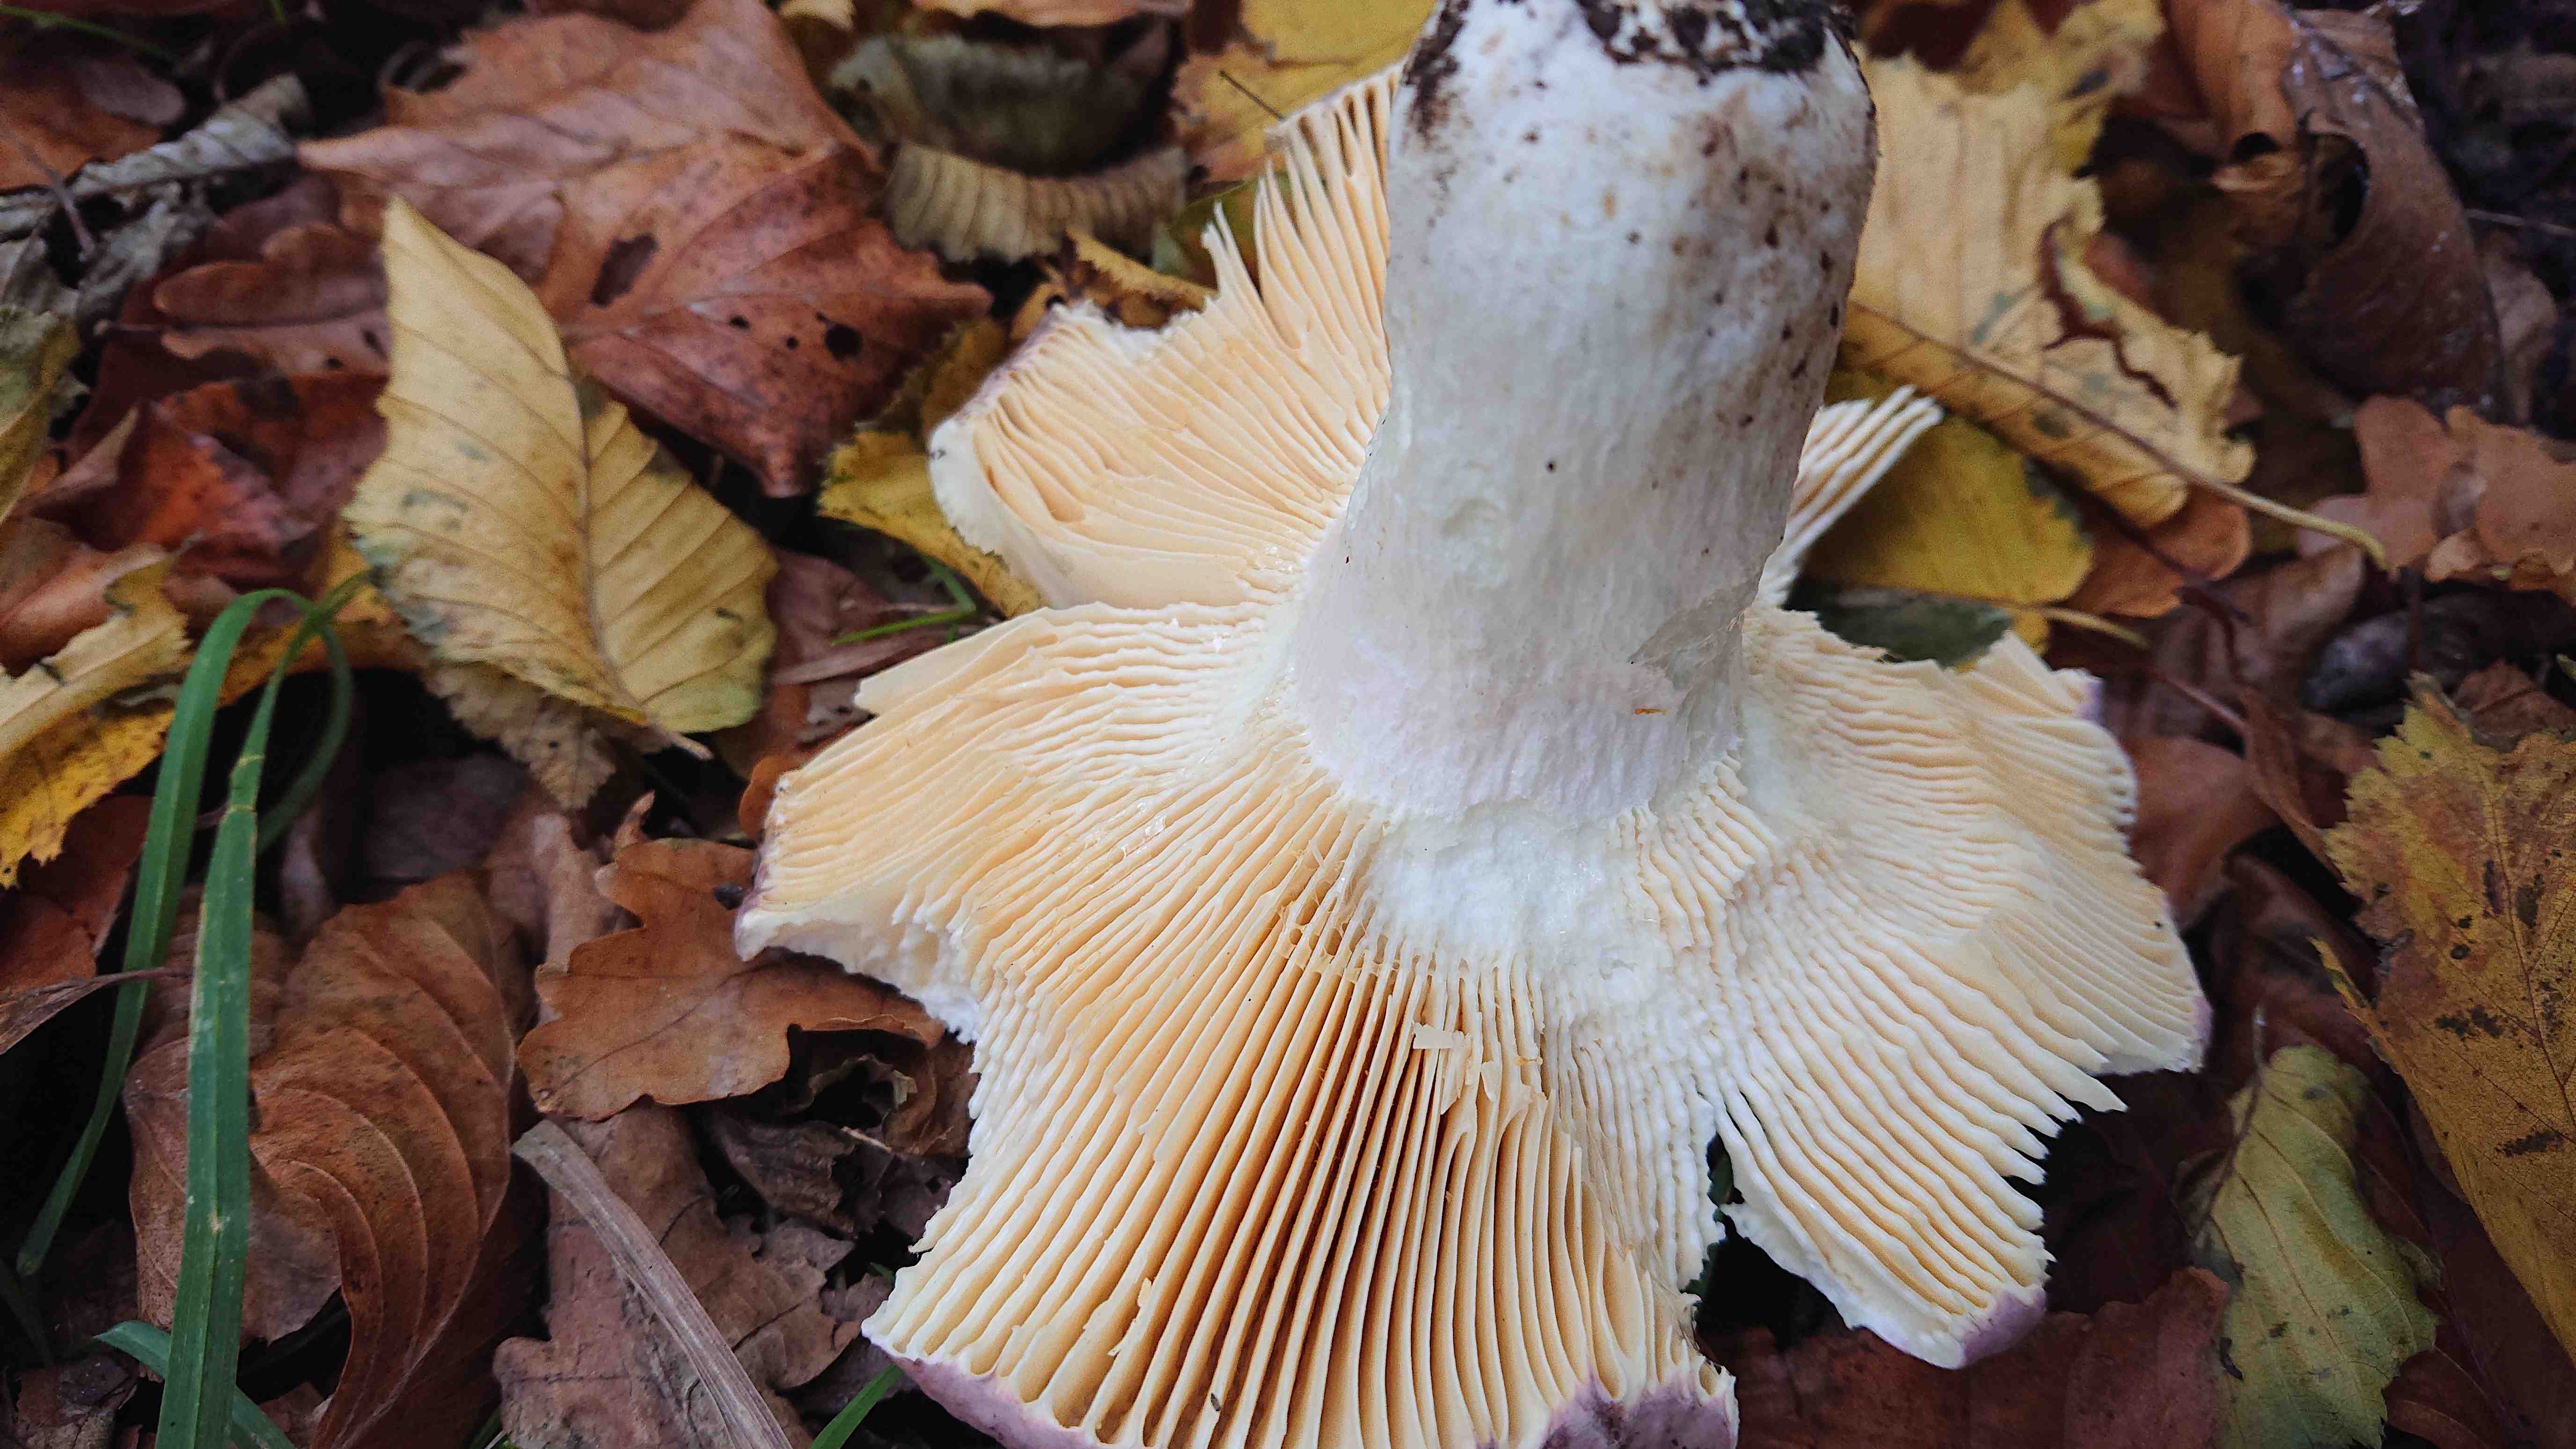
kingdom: Fungi
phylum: Basidiomycota
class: Agaricomycetes
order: Russulales
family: Russulaceae
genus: Russula
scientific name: Russula olivacea
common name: stor skørhat
